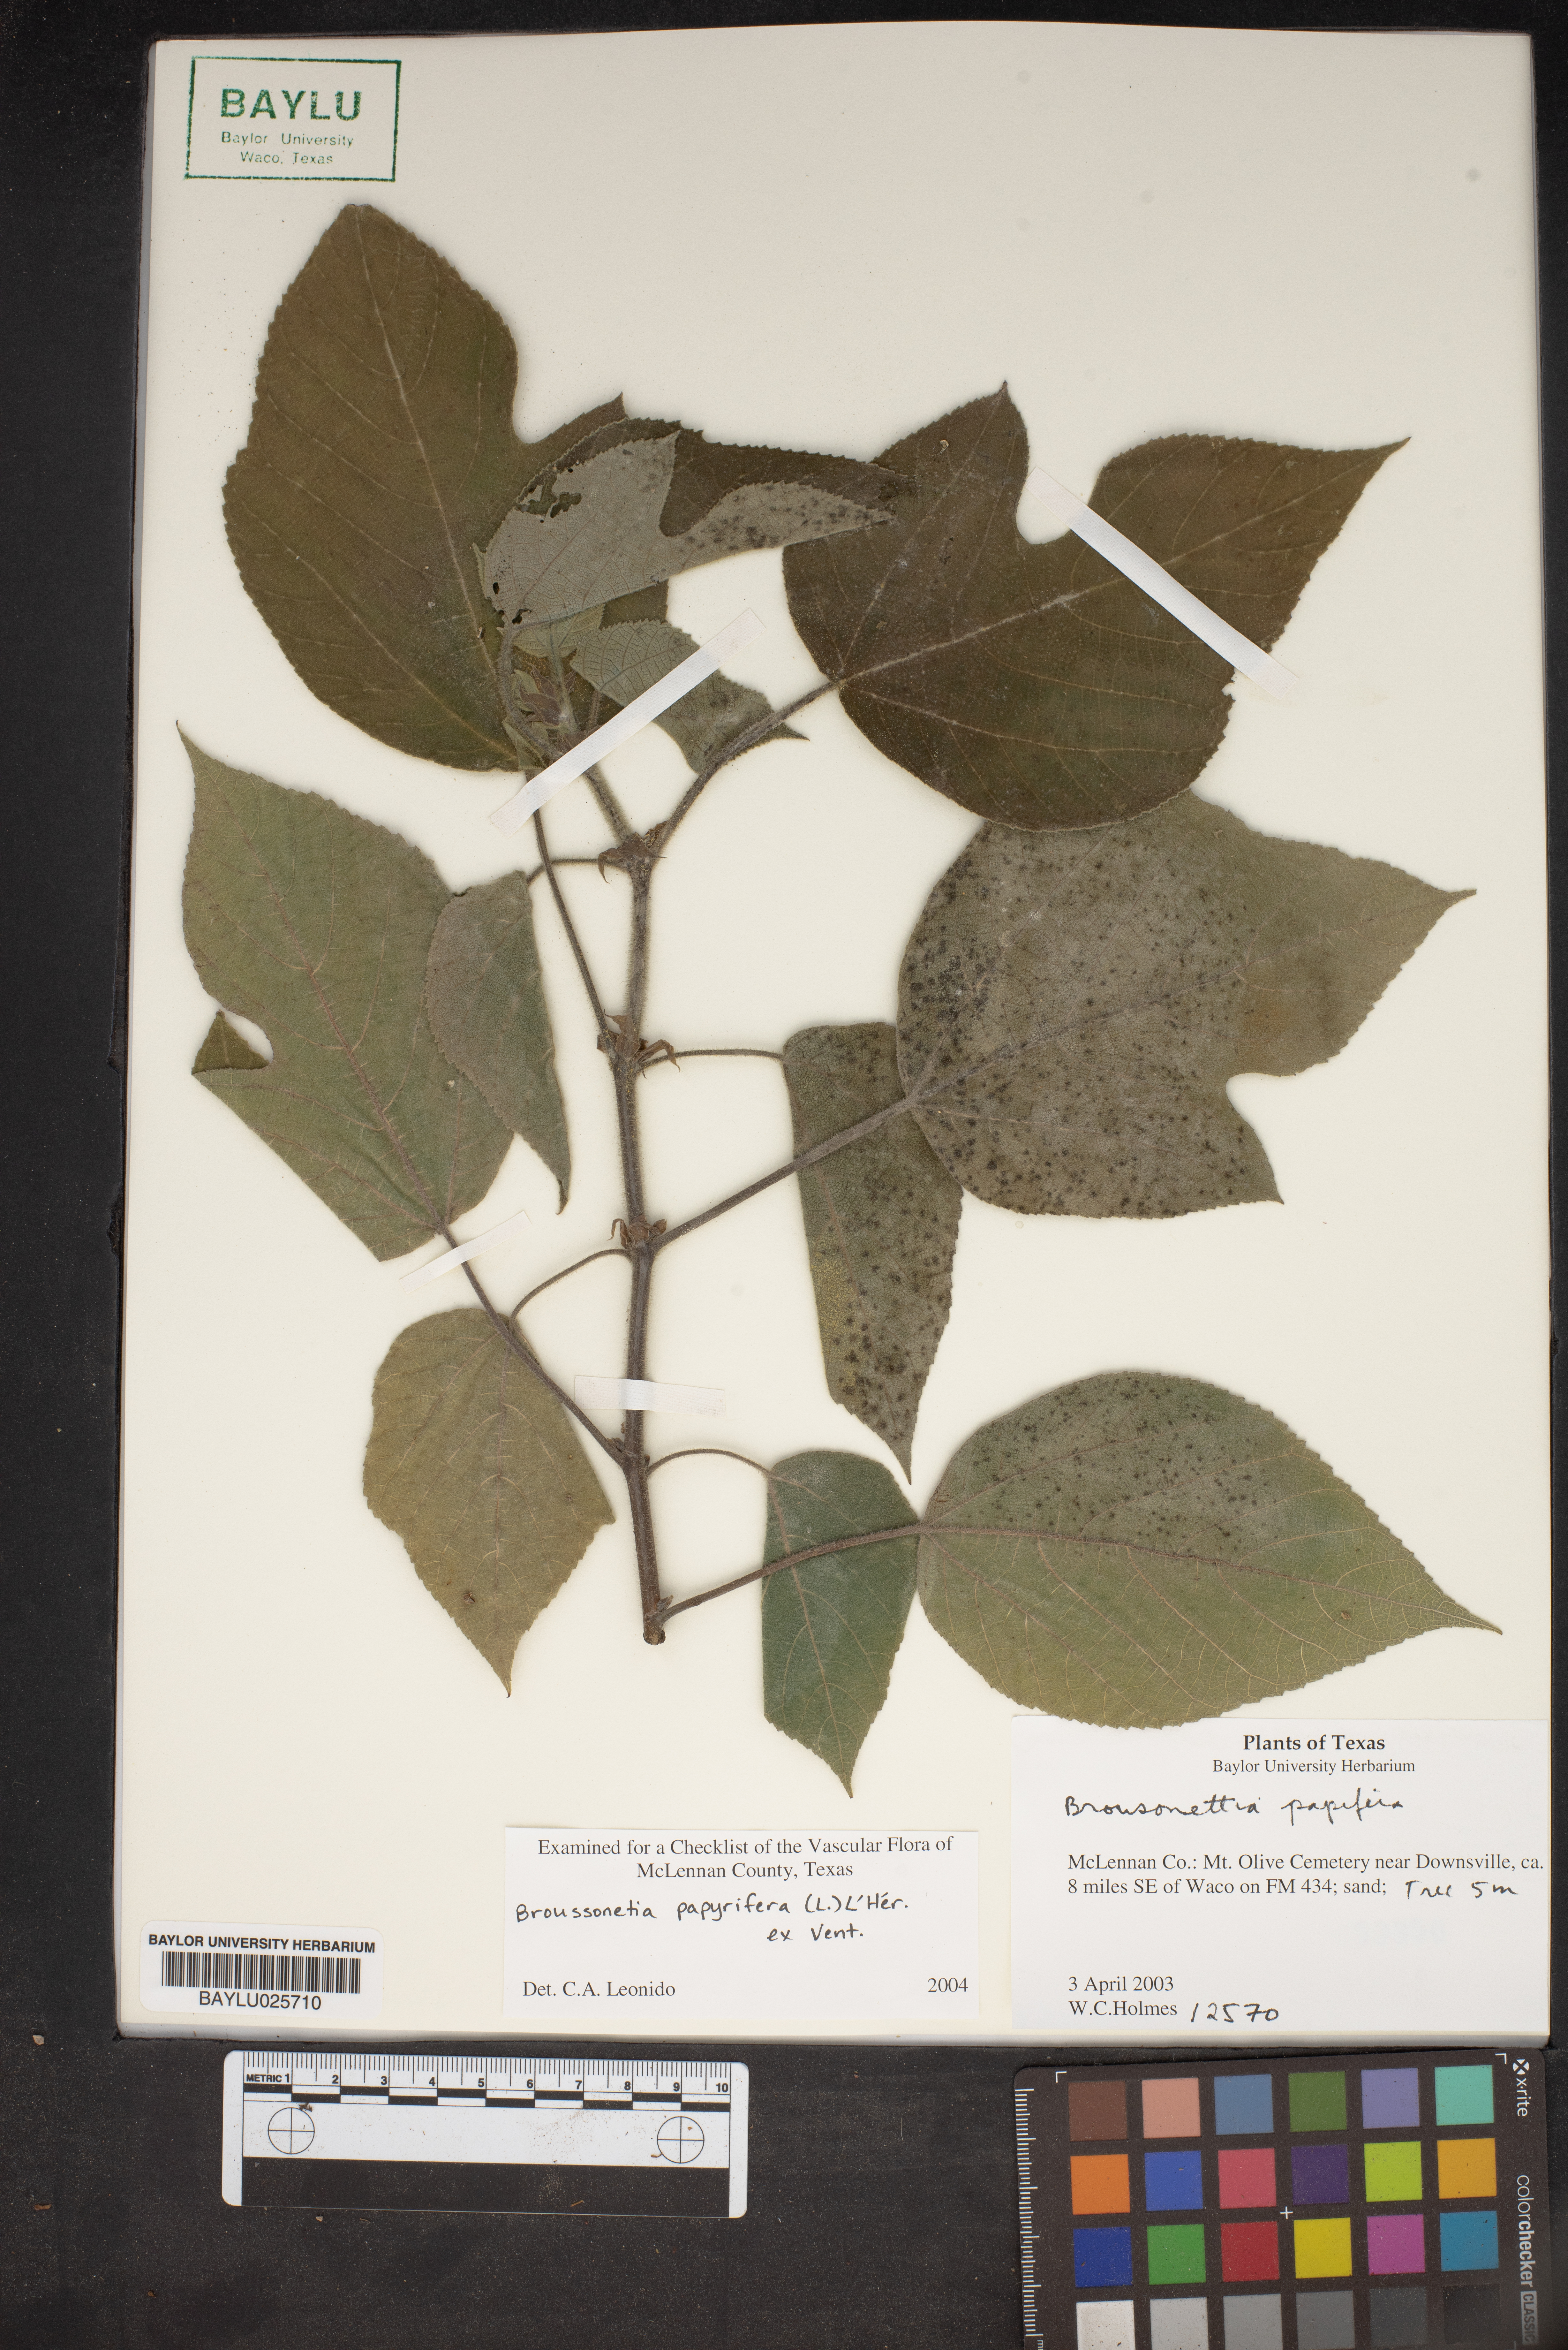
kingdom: Plantae
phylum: Tracheophyta
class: Magnoliopsida
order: Rosales
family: Moraceae
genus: Broussonetia
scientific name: Broussonetia papyrifera
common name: Paper mulberry
